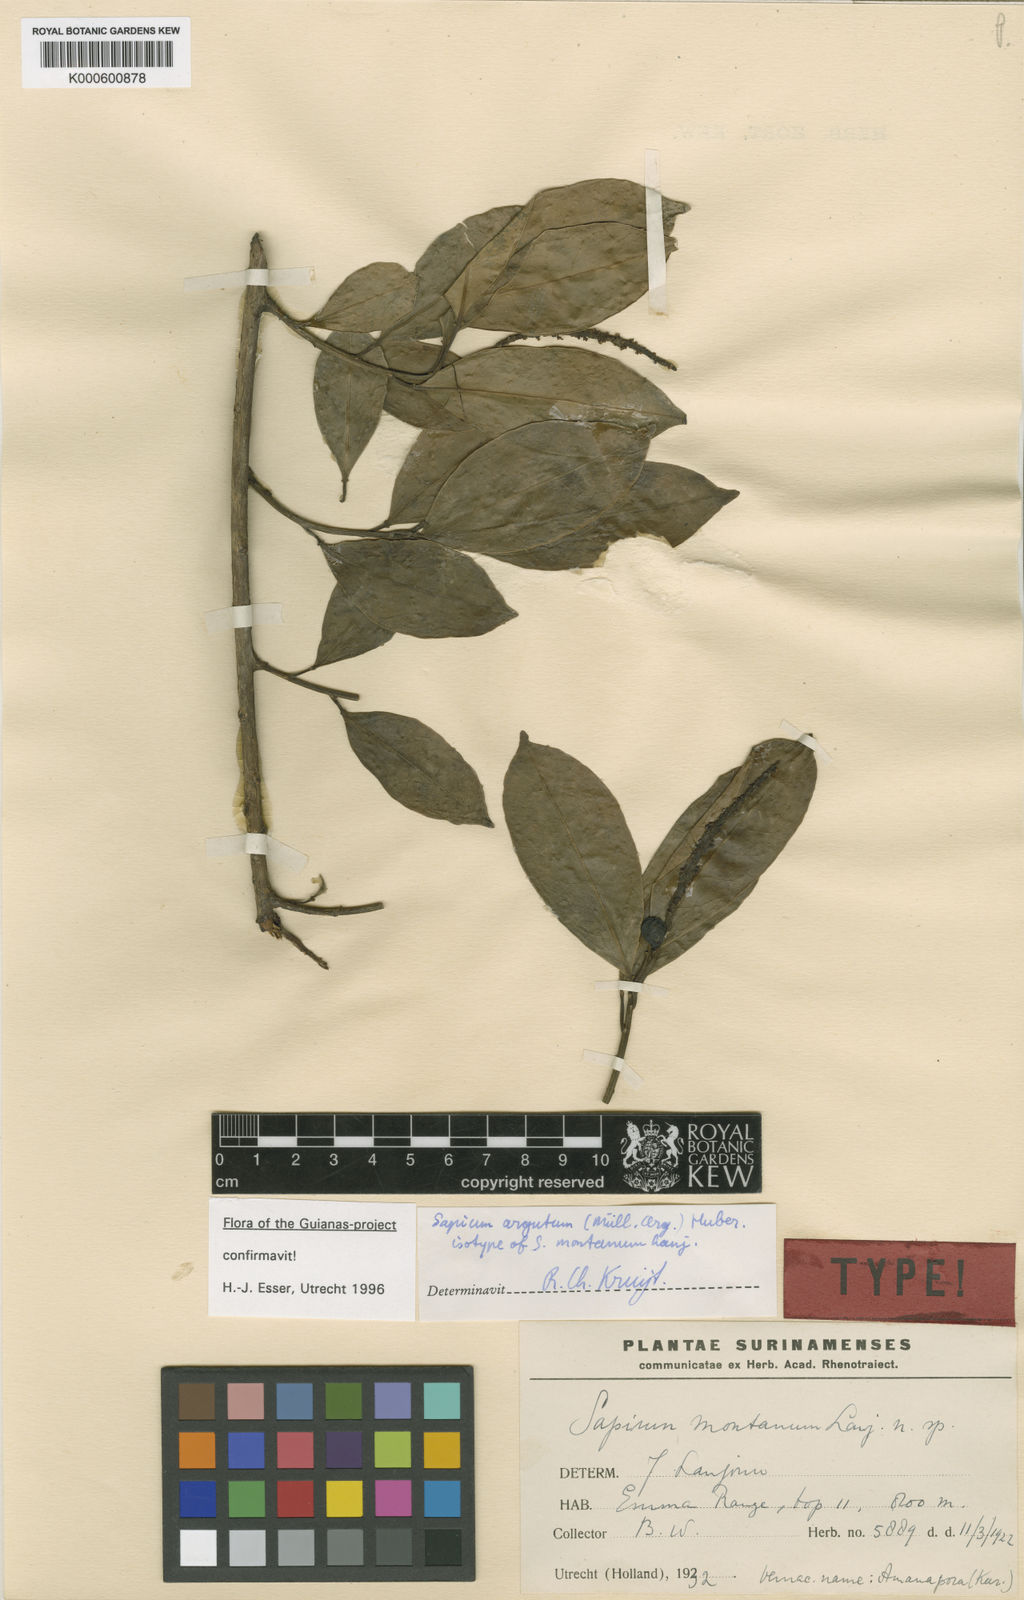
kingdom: Plantae
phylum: Tracheophyta
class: Magnoliopsida
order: Malpighiales
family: Euphorbiaceae
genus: Sapium
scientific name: Sapium
